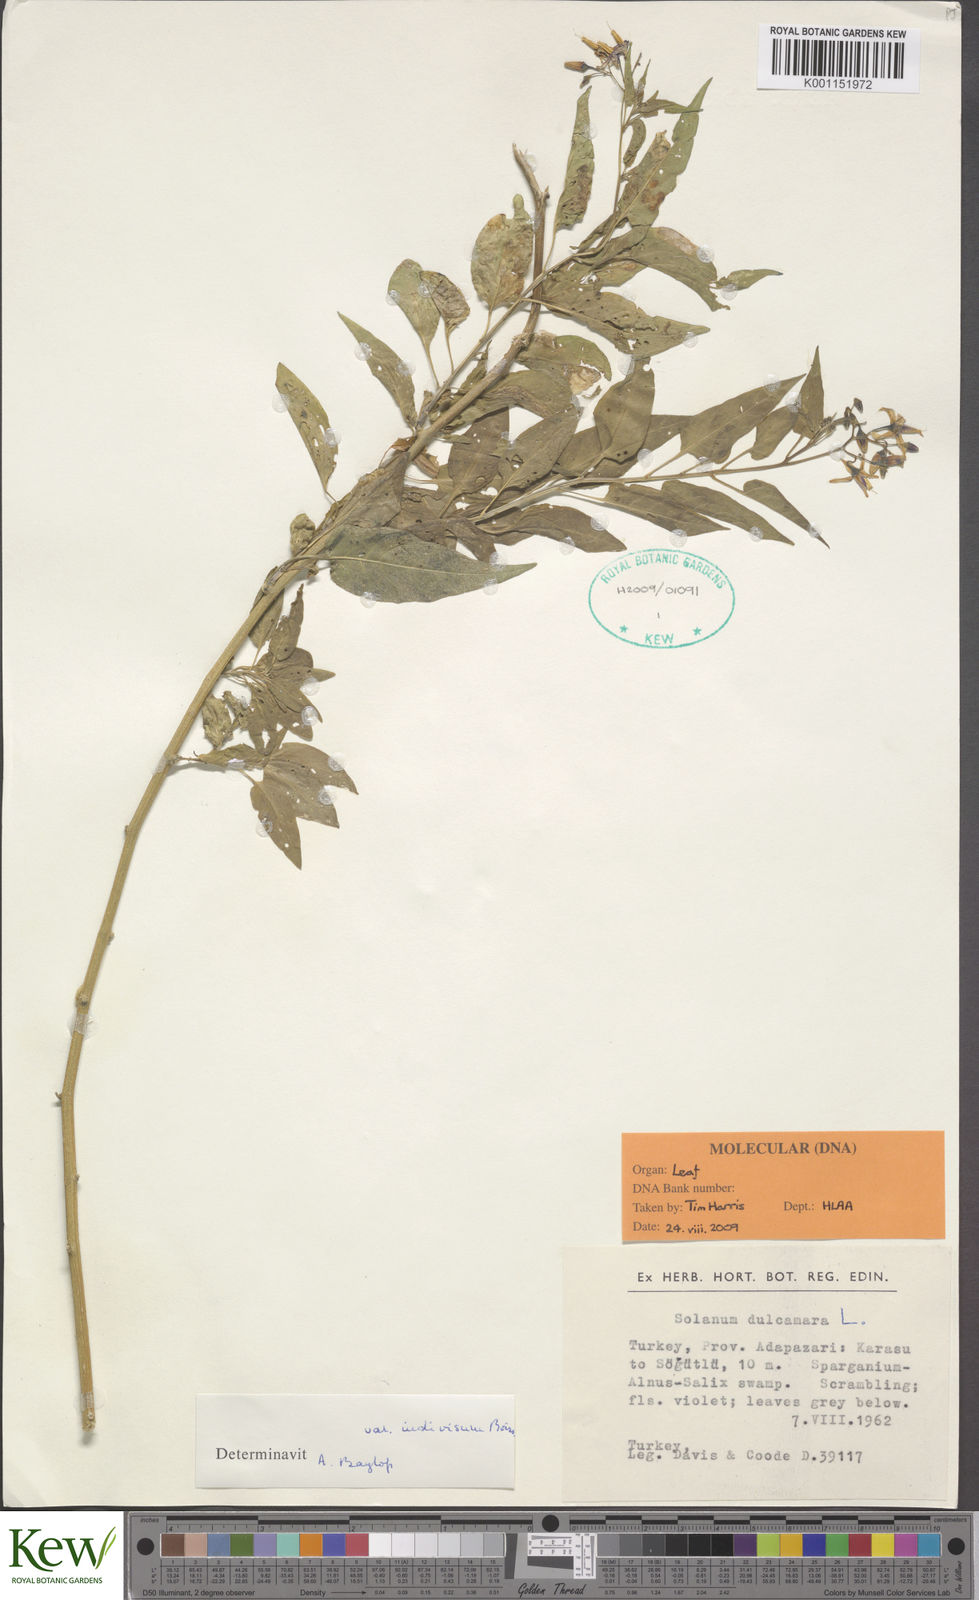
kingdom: Plantae
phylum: Tracheophyta
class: Magnoliopsida
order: Solanales
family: Solanaceae
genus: Solanum
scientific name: Solanum dulcamara
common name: Climbing nightshade
